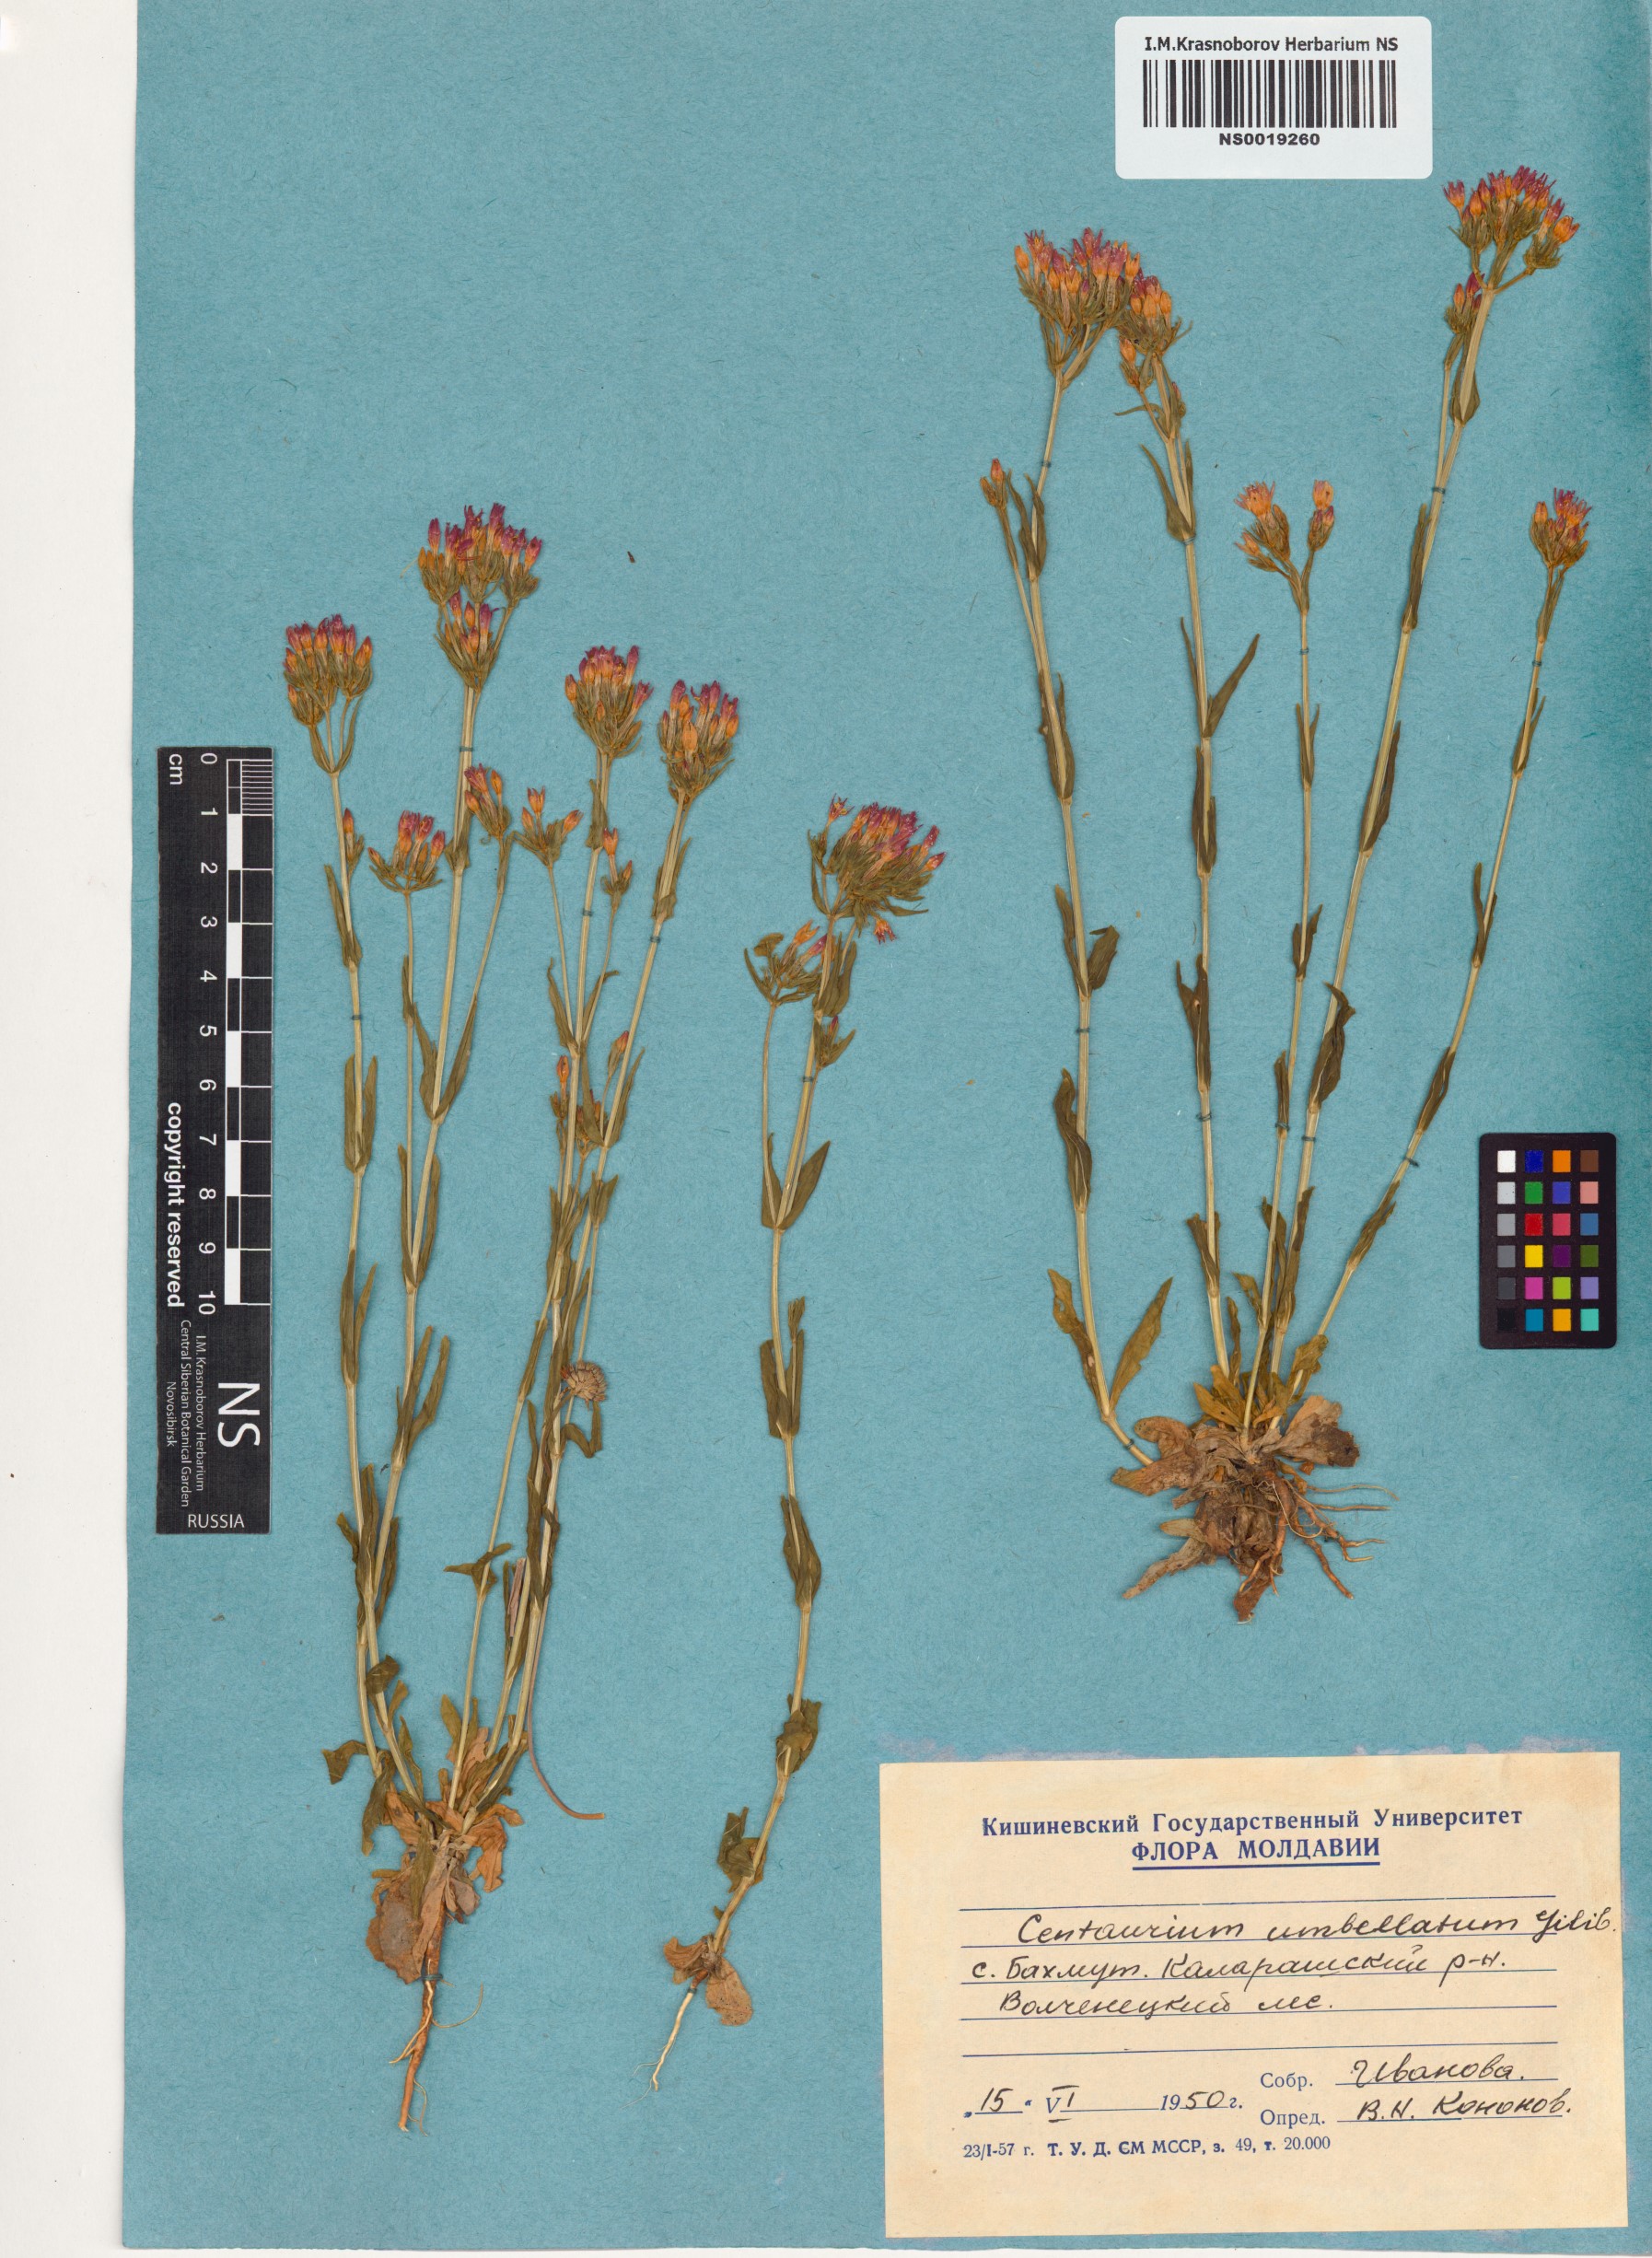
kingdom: Plantae
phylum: Tracheophyta
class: Magnoliopsida
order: Gentianales
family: Gentianaceae
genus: Centaurium
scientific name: Centaurium erythraea
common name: Common centaury
